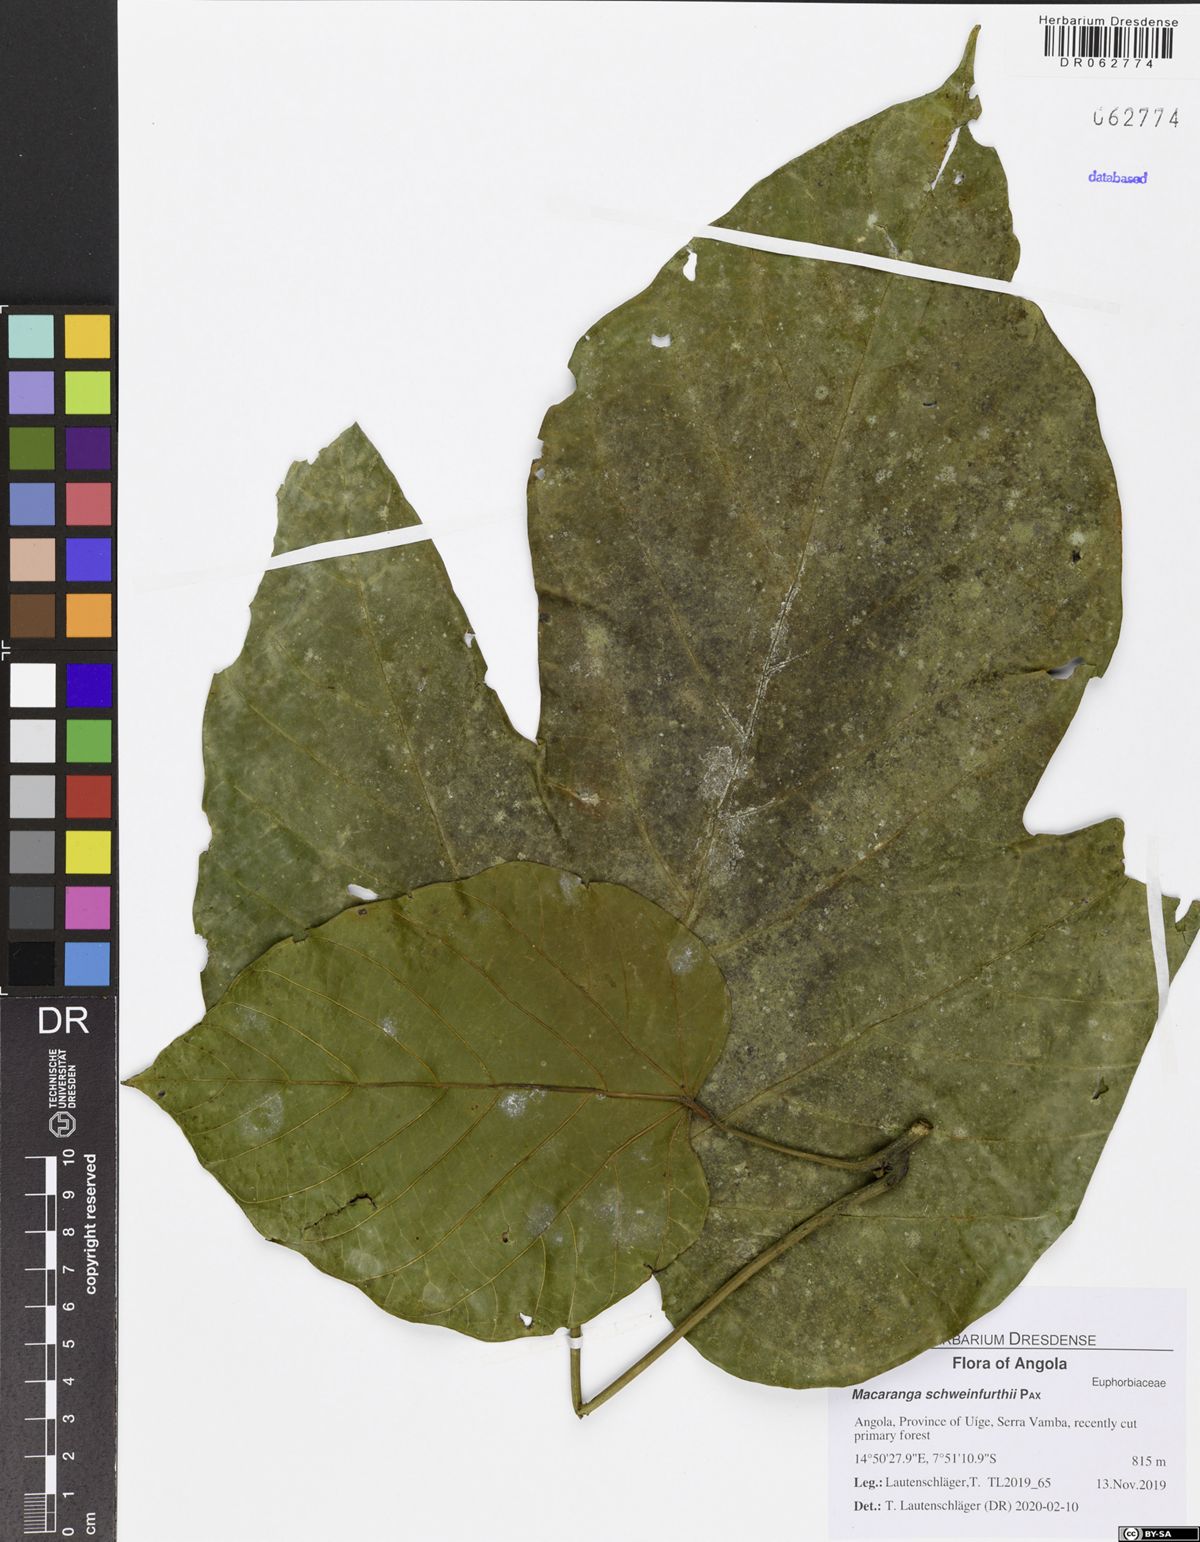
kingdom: Plantae
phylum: Tracheophyta
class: Magnoliopsida
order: Malpighiales
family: Euphorbiaceae
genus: Macaranga
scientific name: Macaranga schweinfurthii
